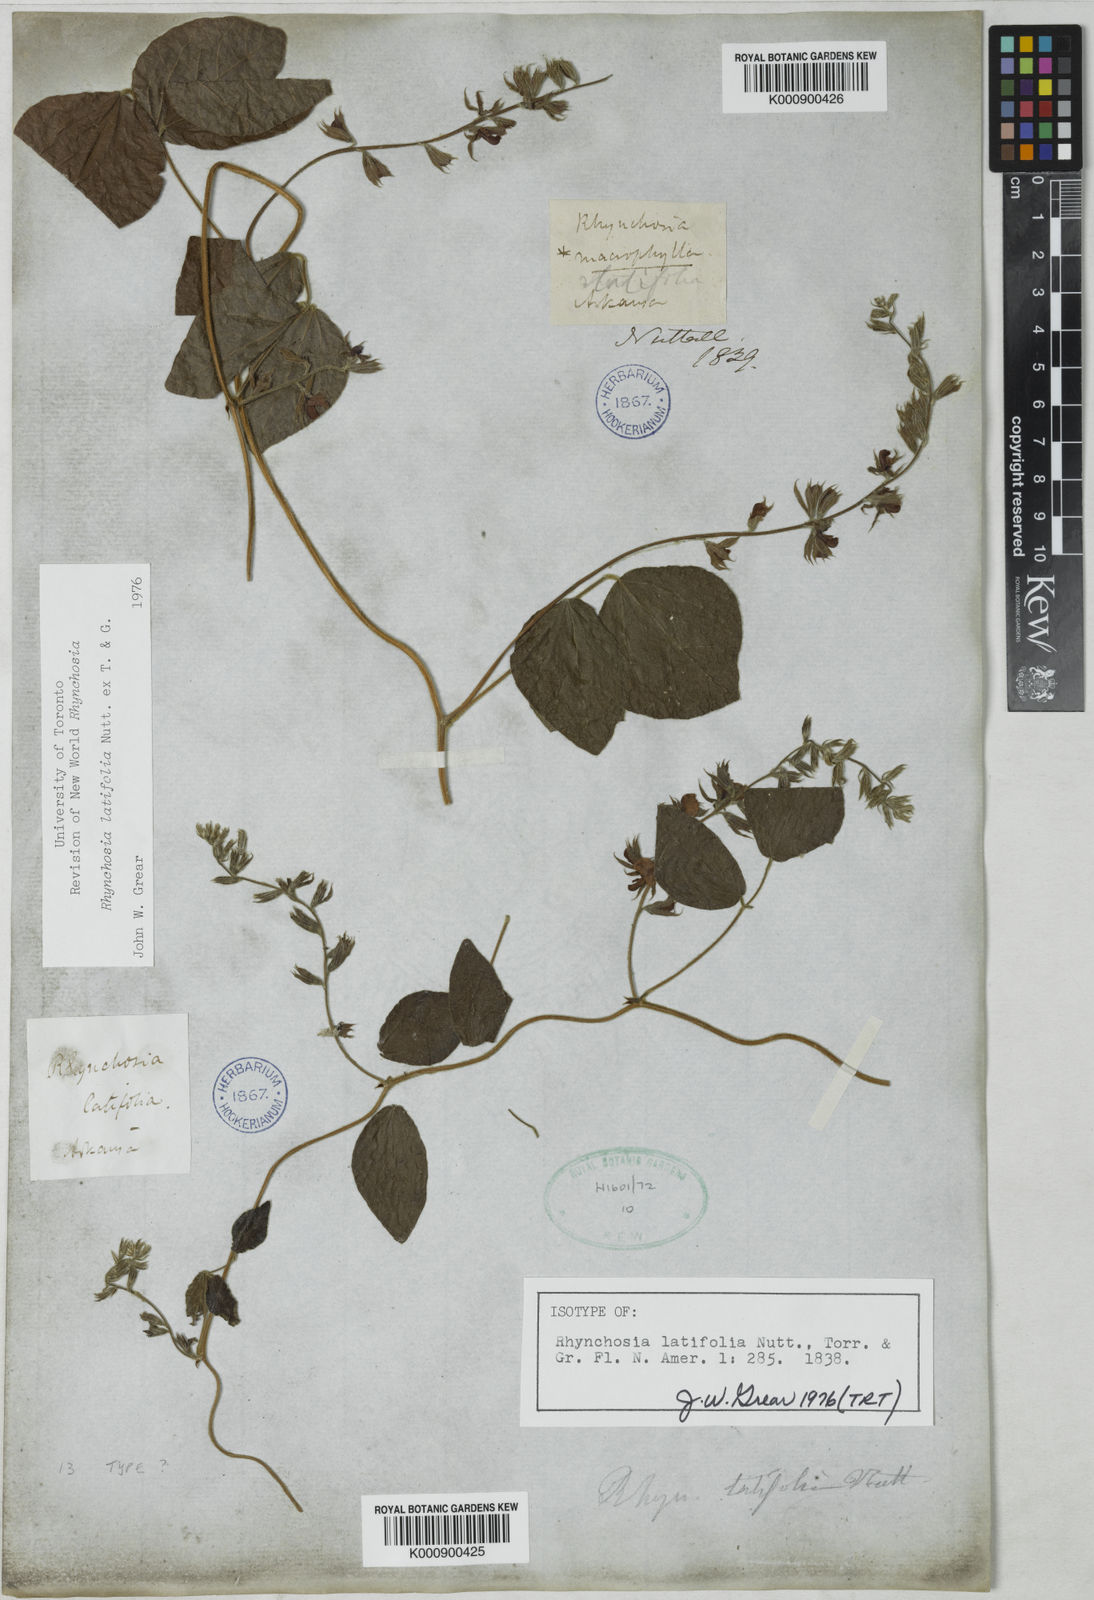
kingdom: Plantae
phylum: Tracheophyta
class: Magnoliopsida
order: Fabales
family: Fabaceae
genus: Rhynchosia
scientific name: Rhynchosia
